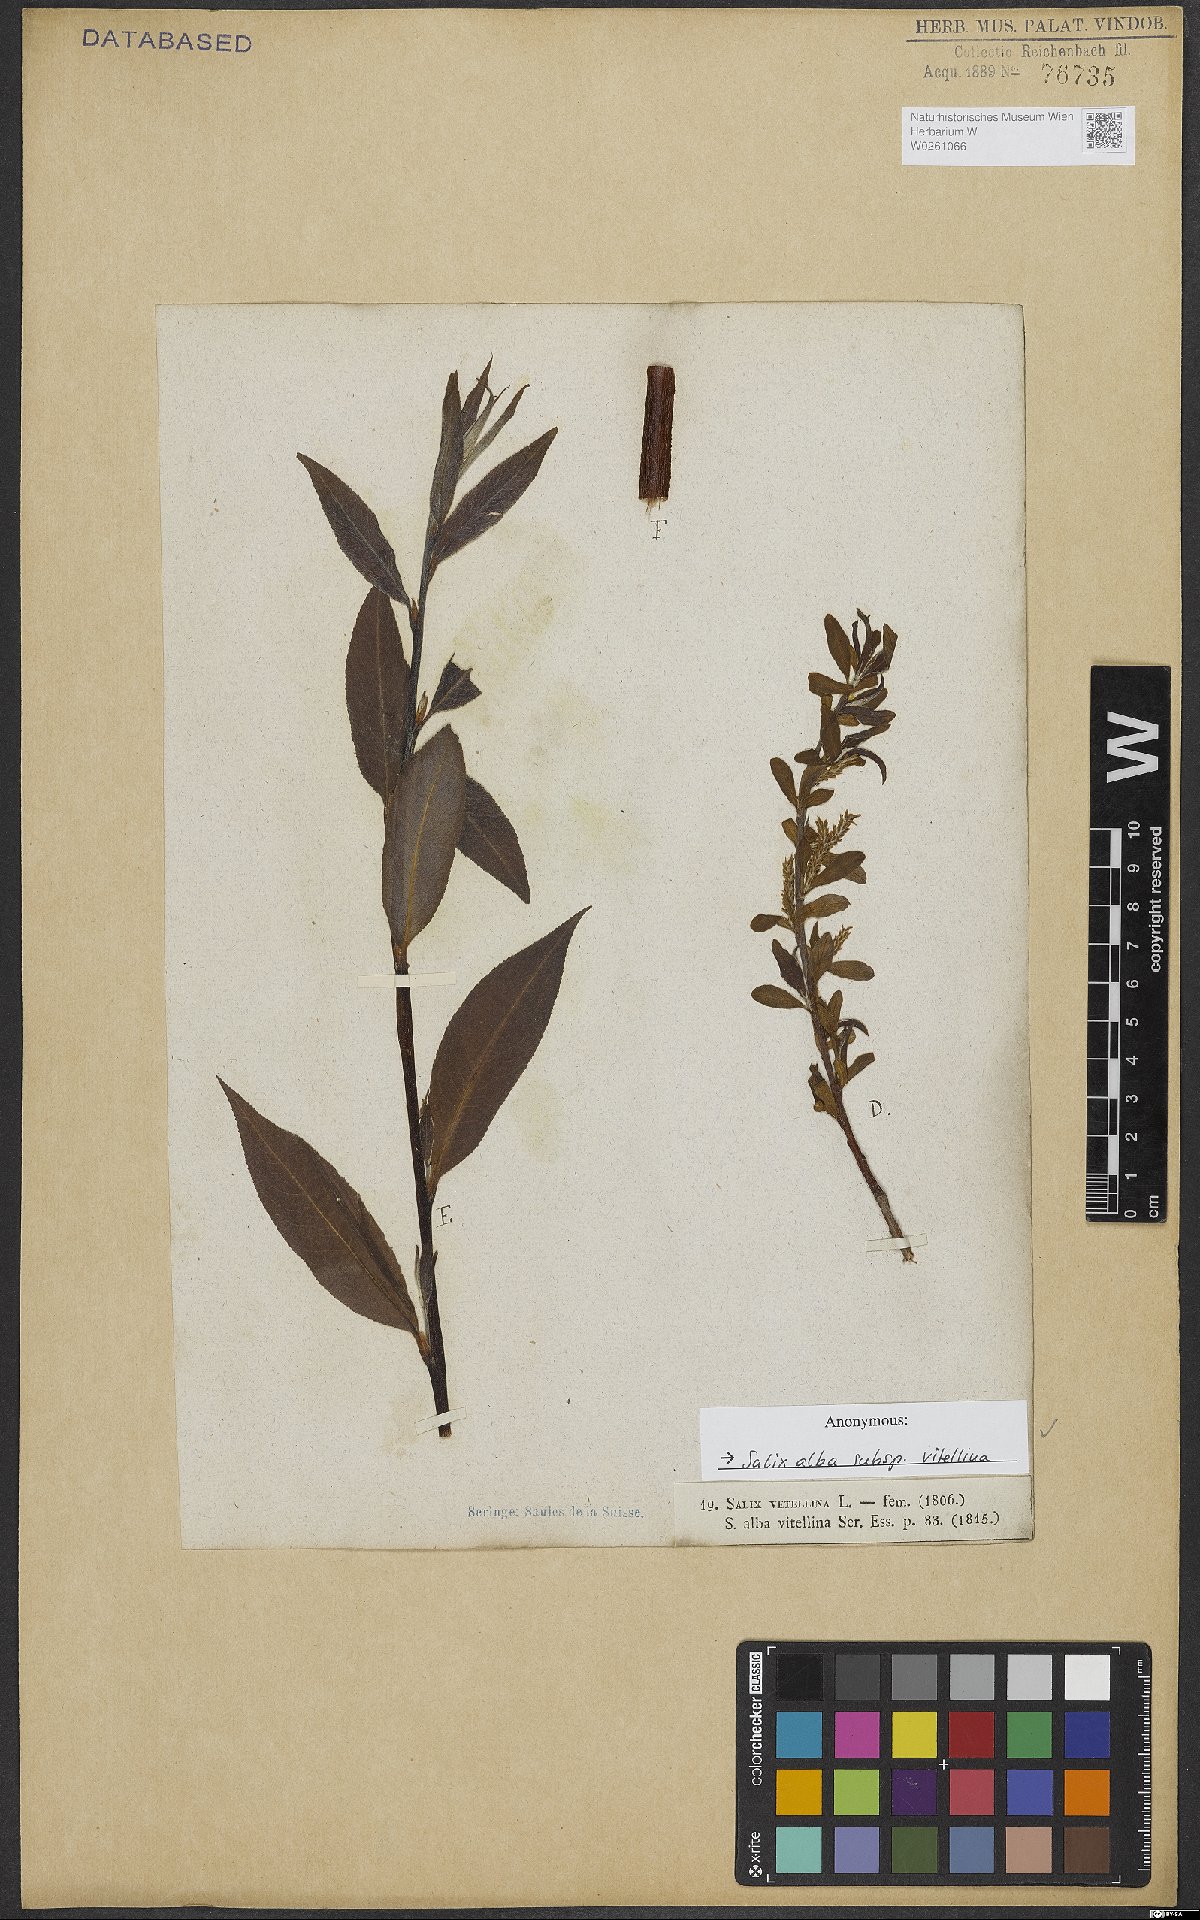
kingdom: Plantae
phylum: Tracheophyta
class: Magnoliopsida
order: Malpighiales
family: Salicaceae
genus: Salix
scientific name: Salix alba
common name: White willow
